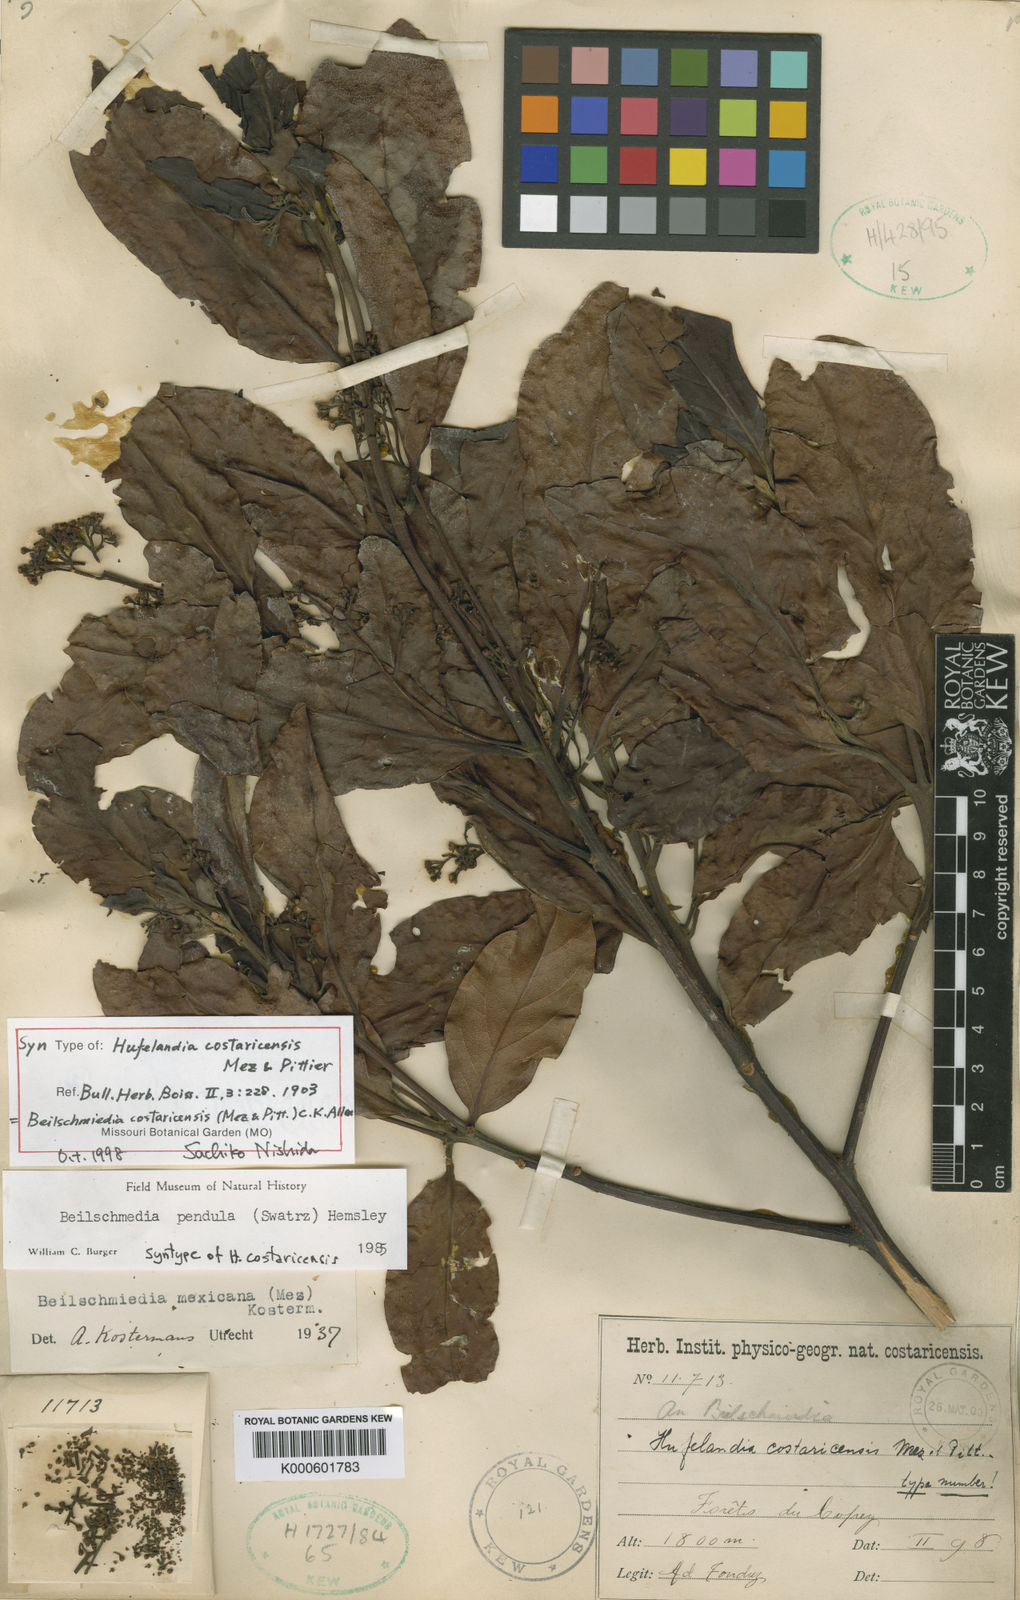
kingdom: Plantae
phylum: Tracheophyta
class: Magnoliopsida
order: Laurales
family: Lauraceae
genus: Beilschmiedia
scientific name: Beilschmiedia costaricensis
